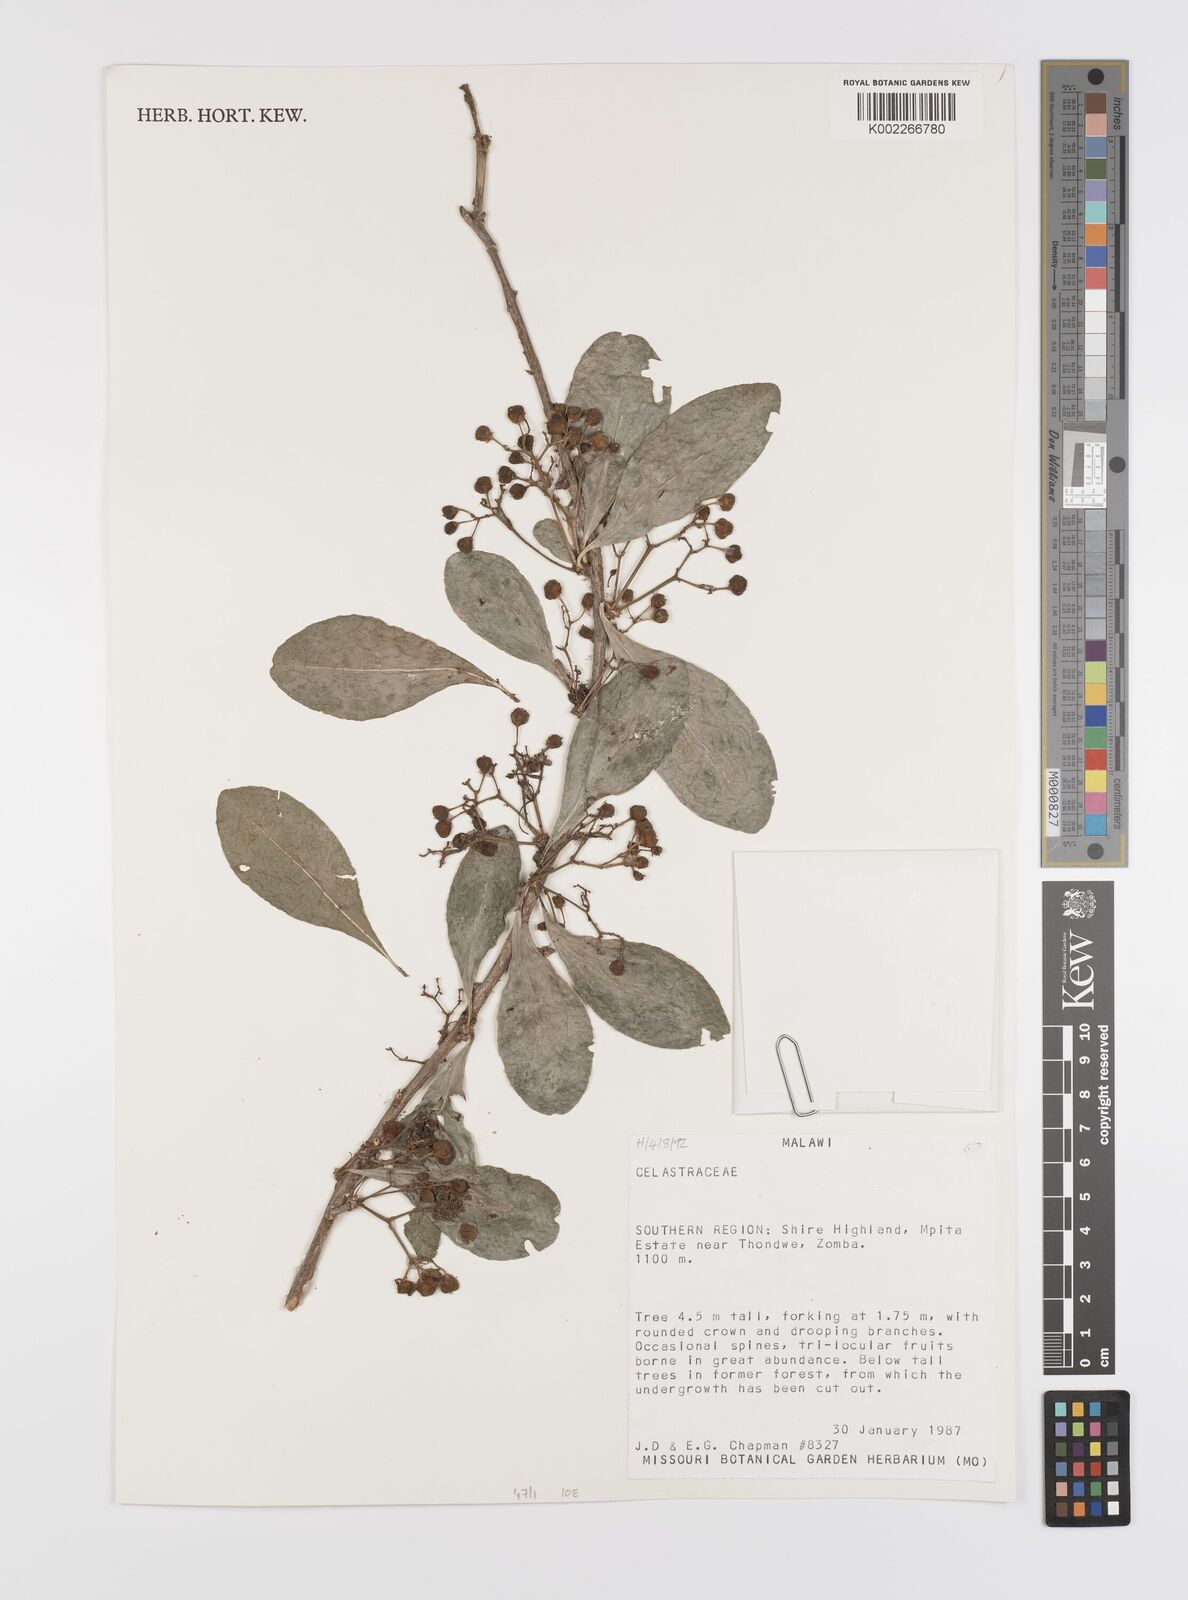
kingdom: Plantae
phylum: Tracheophyta
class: Magnoliopsida
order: Celastrales
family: Celastraceae
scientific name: Celastraceae
